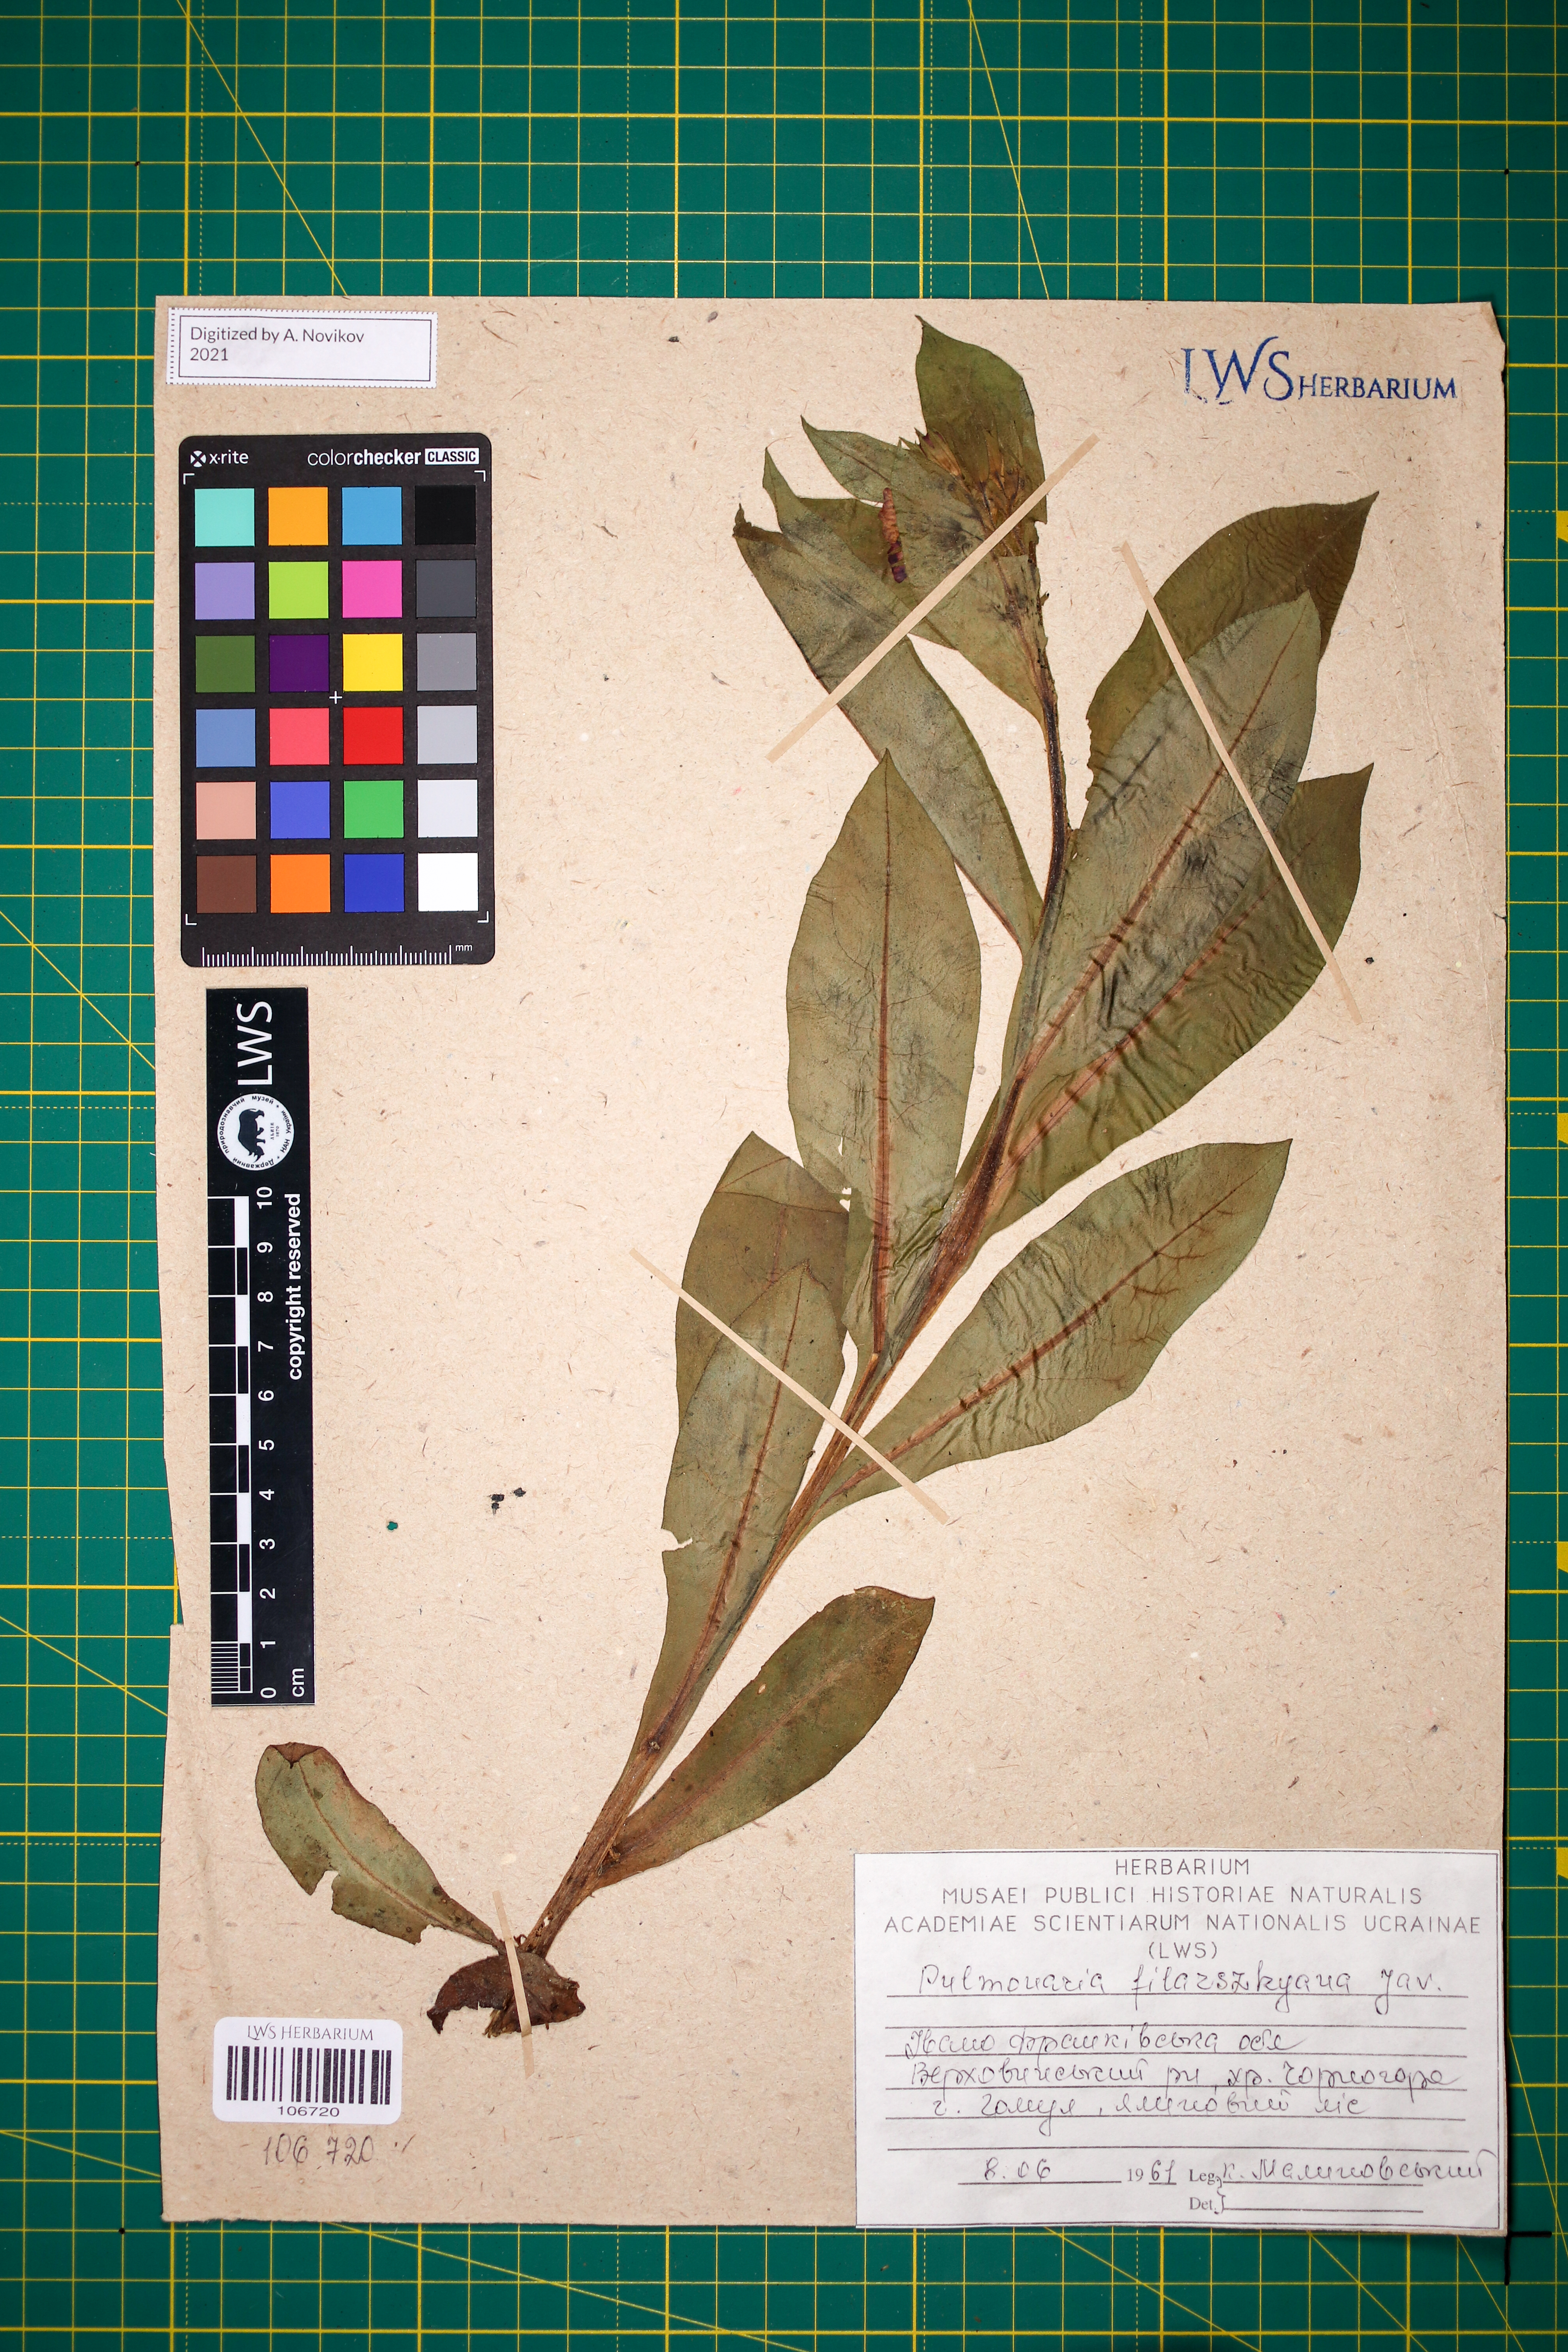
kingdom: Plantae
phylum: Tracheophyta
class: Magnoliopsida
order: Boraginales
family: Boraginaceae
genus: Pulmonaria
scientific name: Pulmonaria filarszkyana
